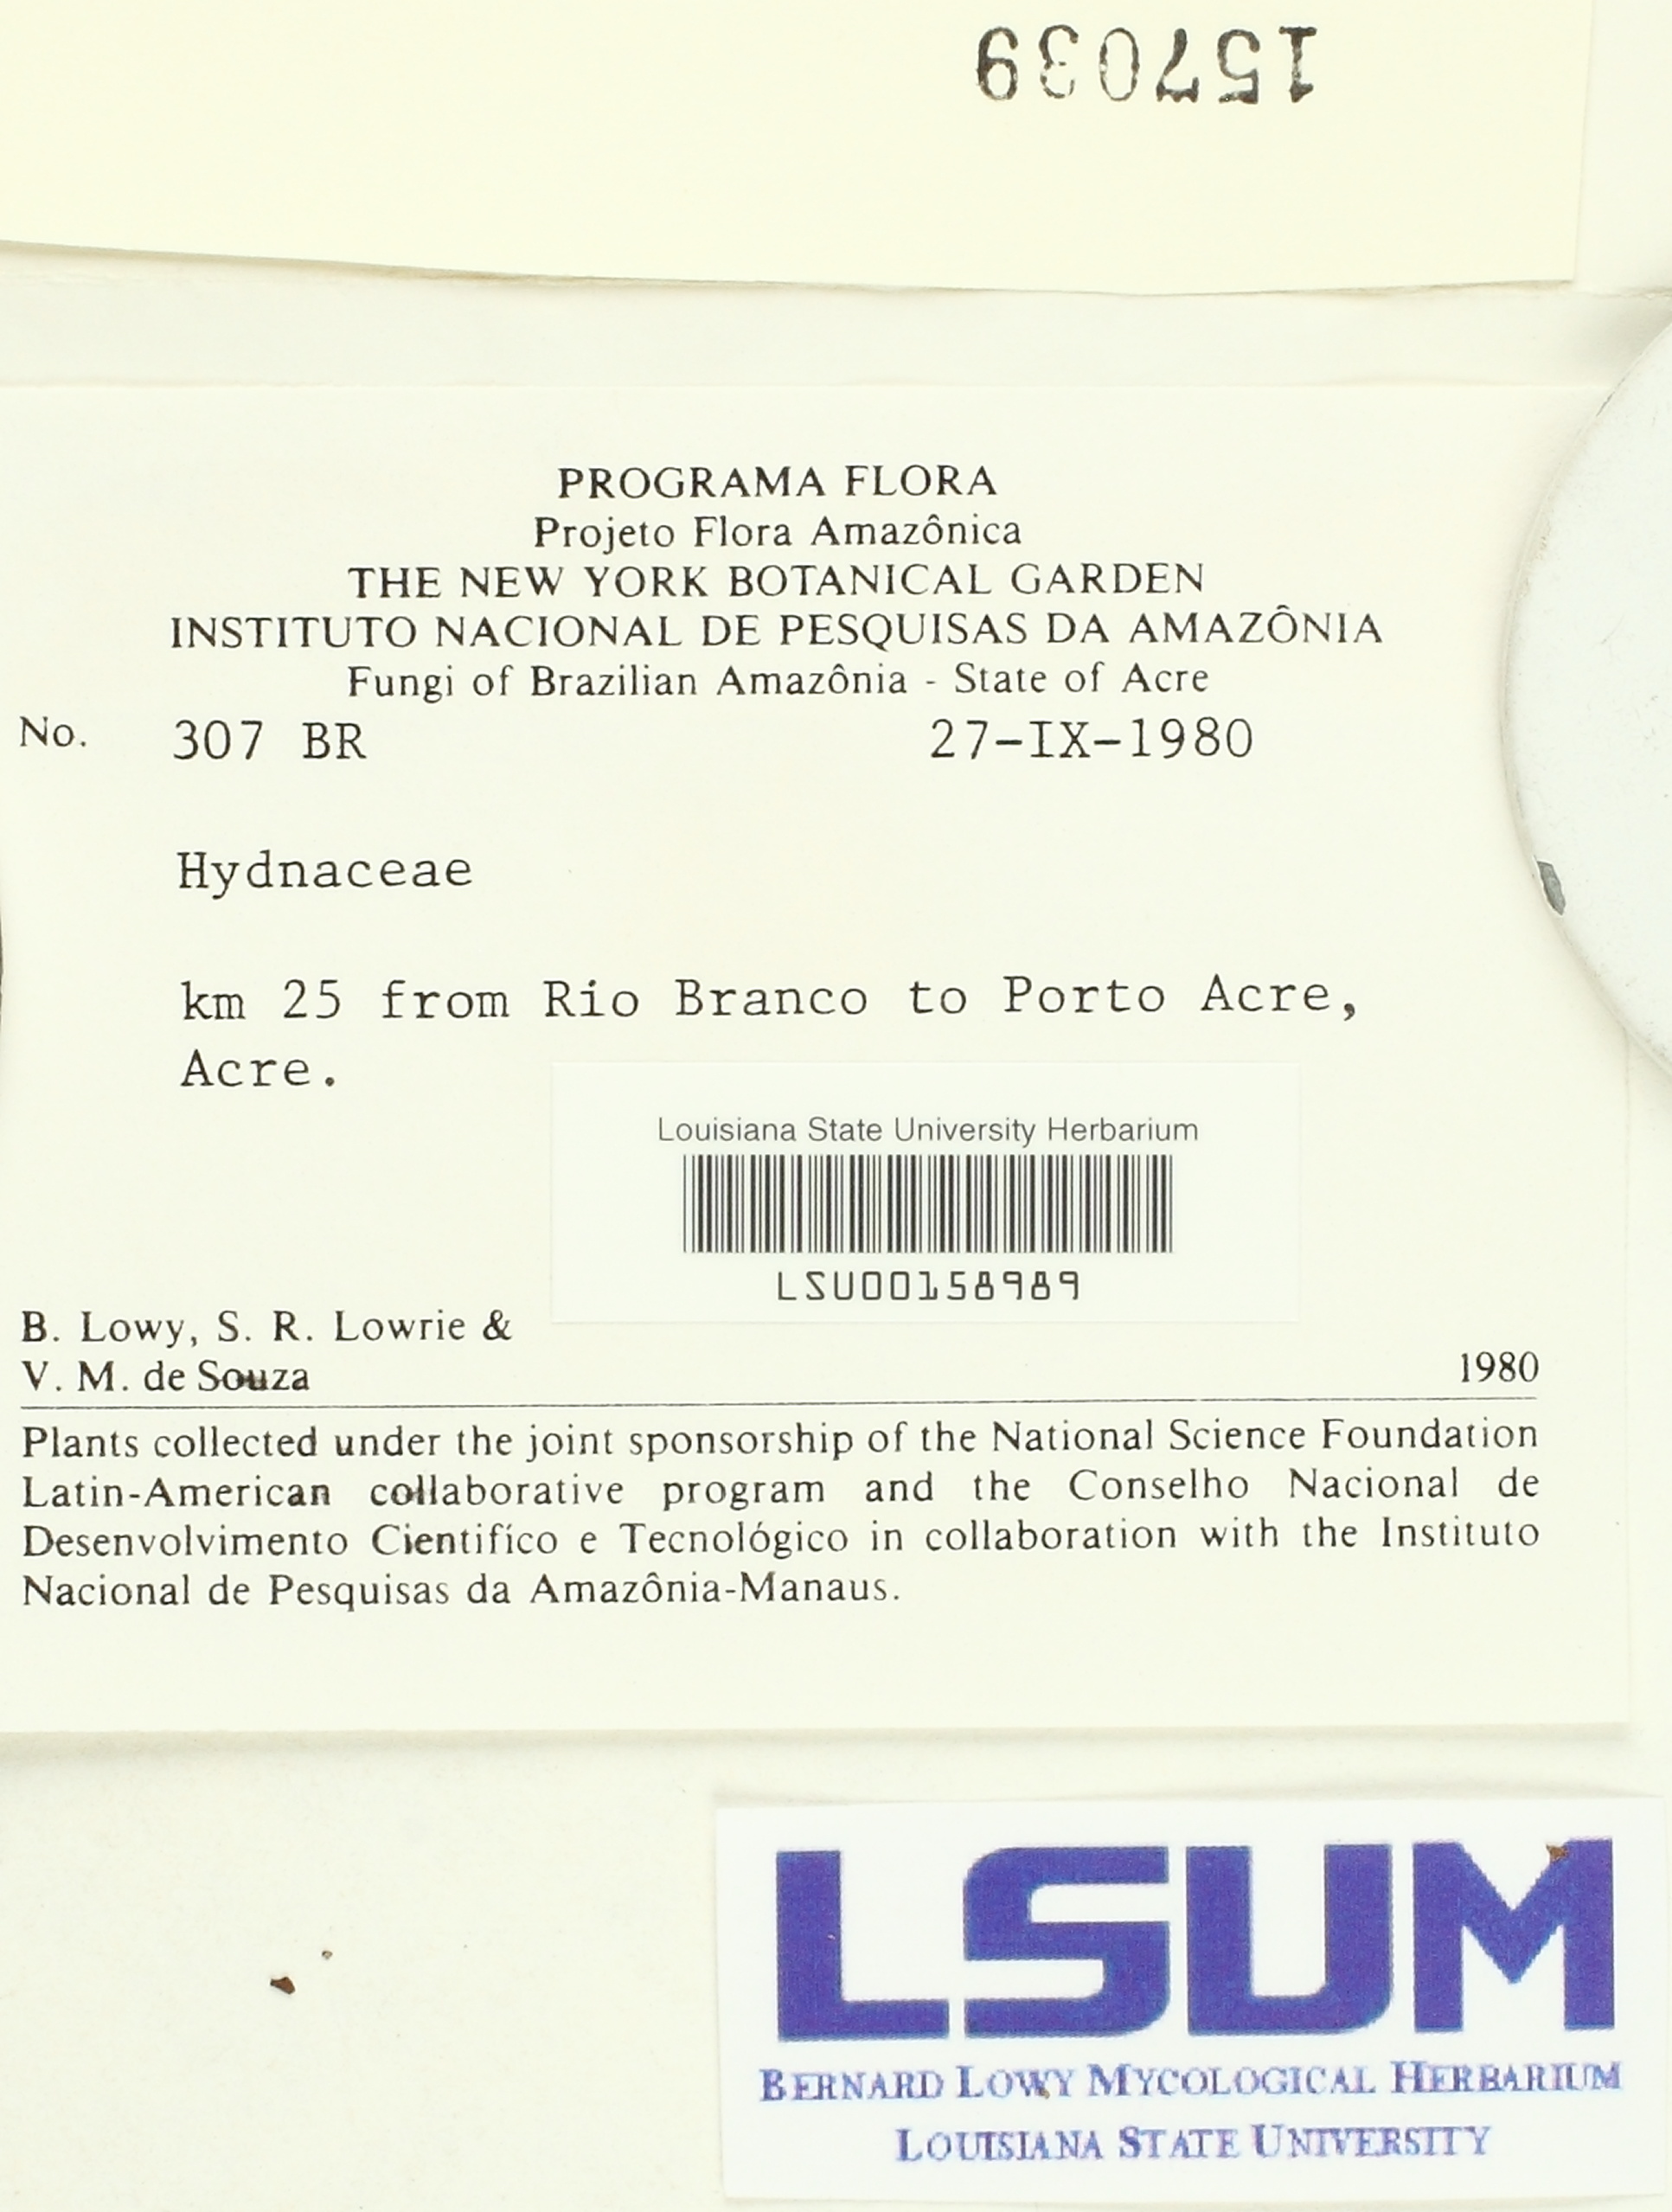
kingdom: Fungi
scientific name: Fungi
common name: Fungi
